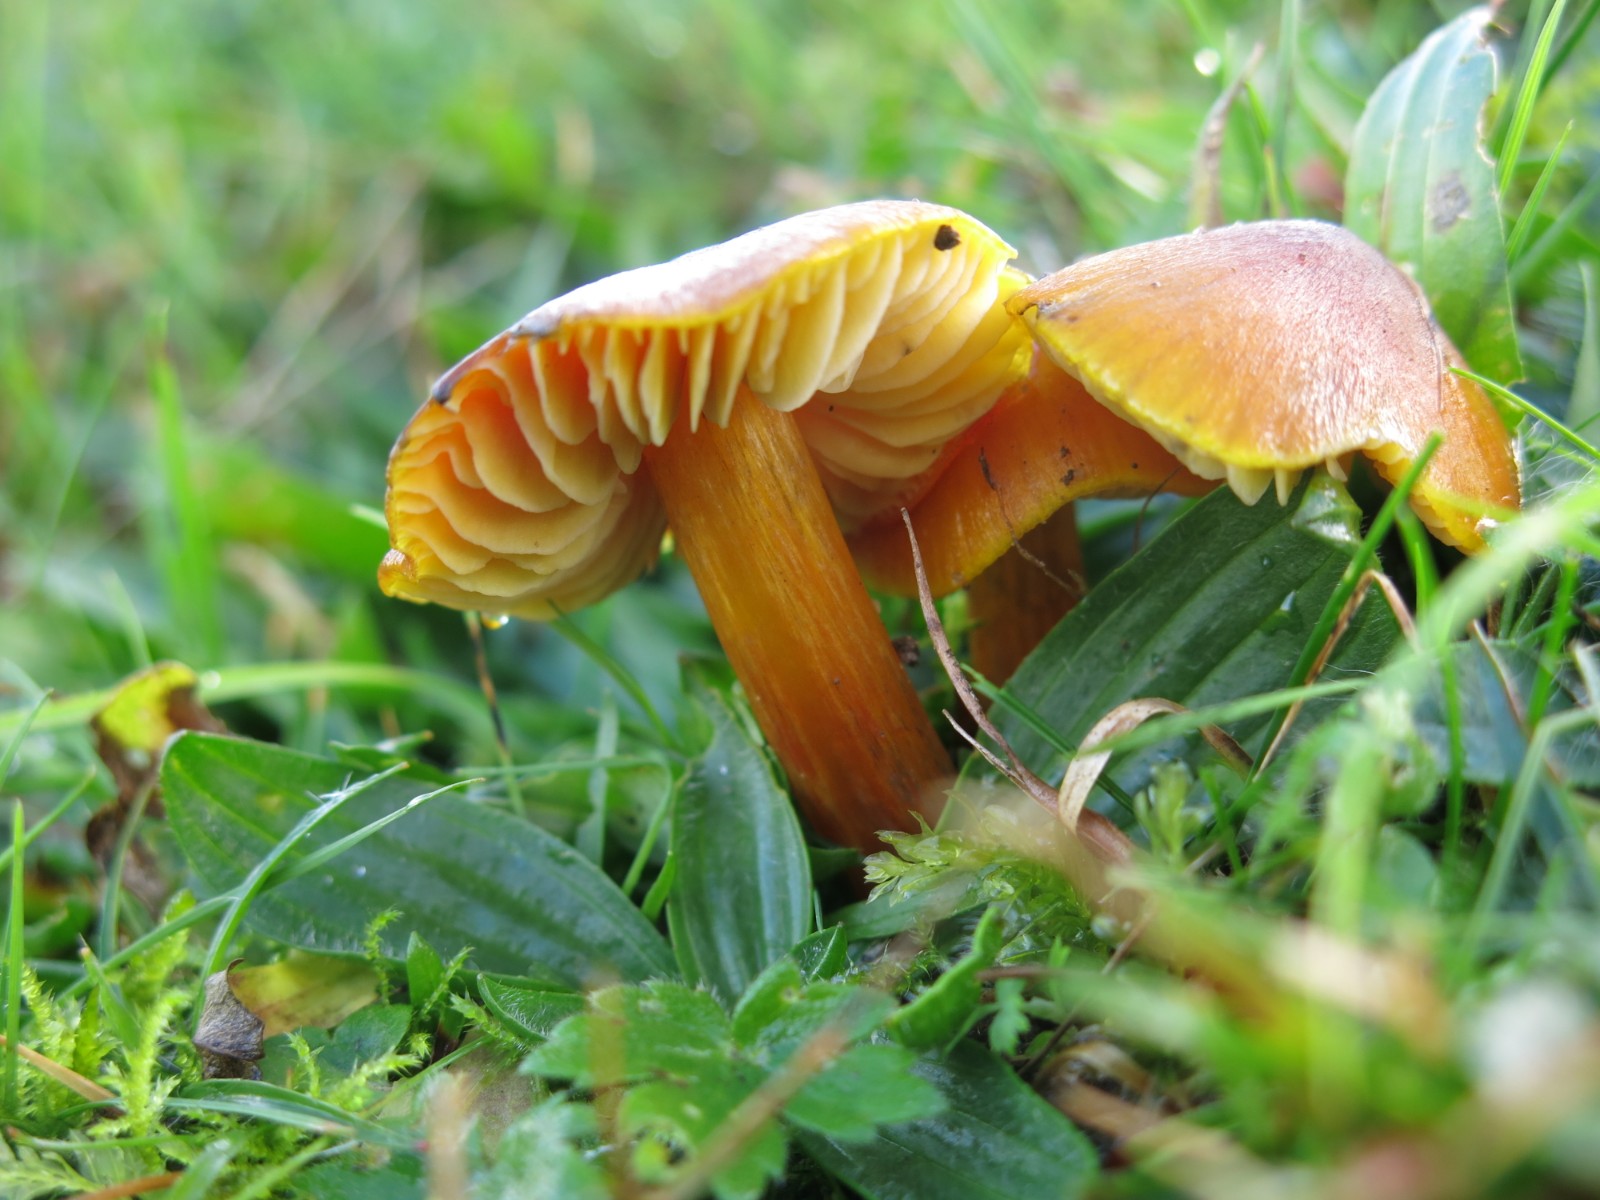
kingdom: Fungi
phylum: Basidiomycota
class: Agaricomycetes
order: Agaricales
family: Hygrophoraceae
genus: Hygrocybe
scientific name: Hygrocybe punicea
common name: skarlagen-vokshat
